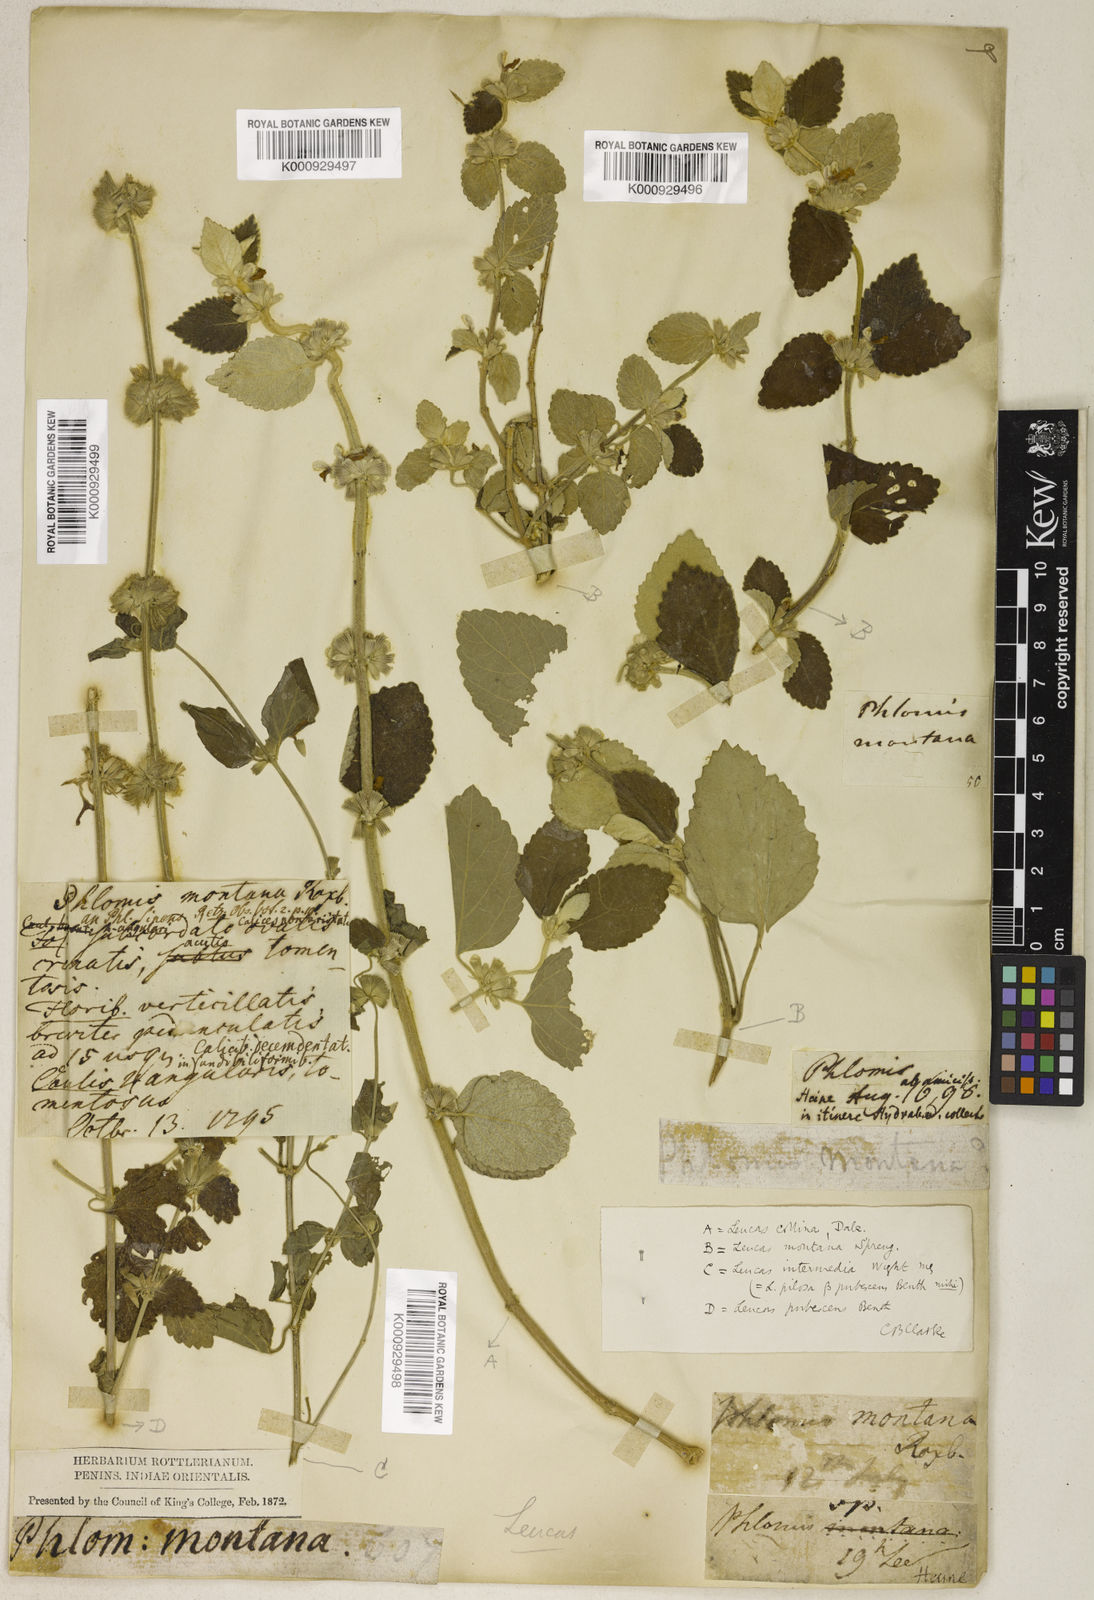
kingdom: Plantae
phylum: Tracheophyta
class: Magnoliopsida
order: Lamiales
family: Lamiaceae
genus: Leucas
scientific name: Leucas montana
